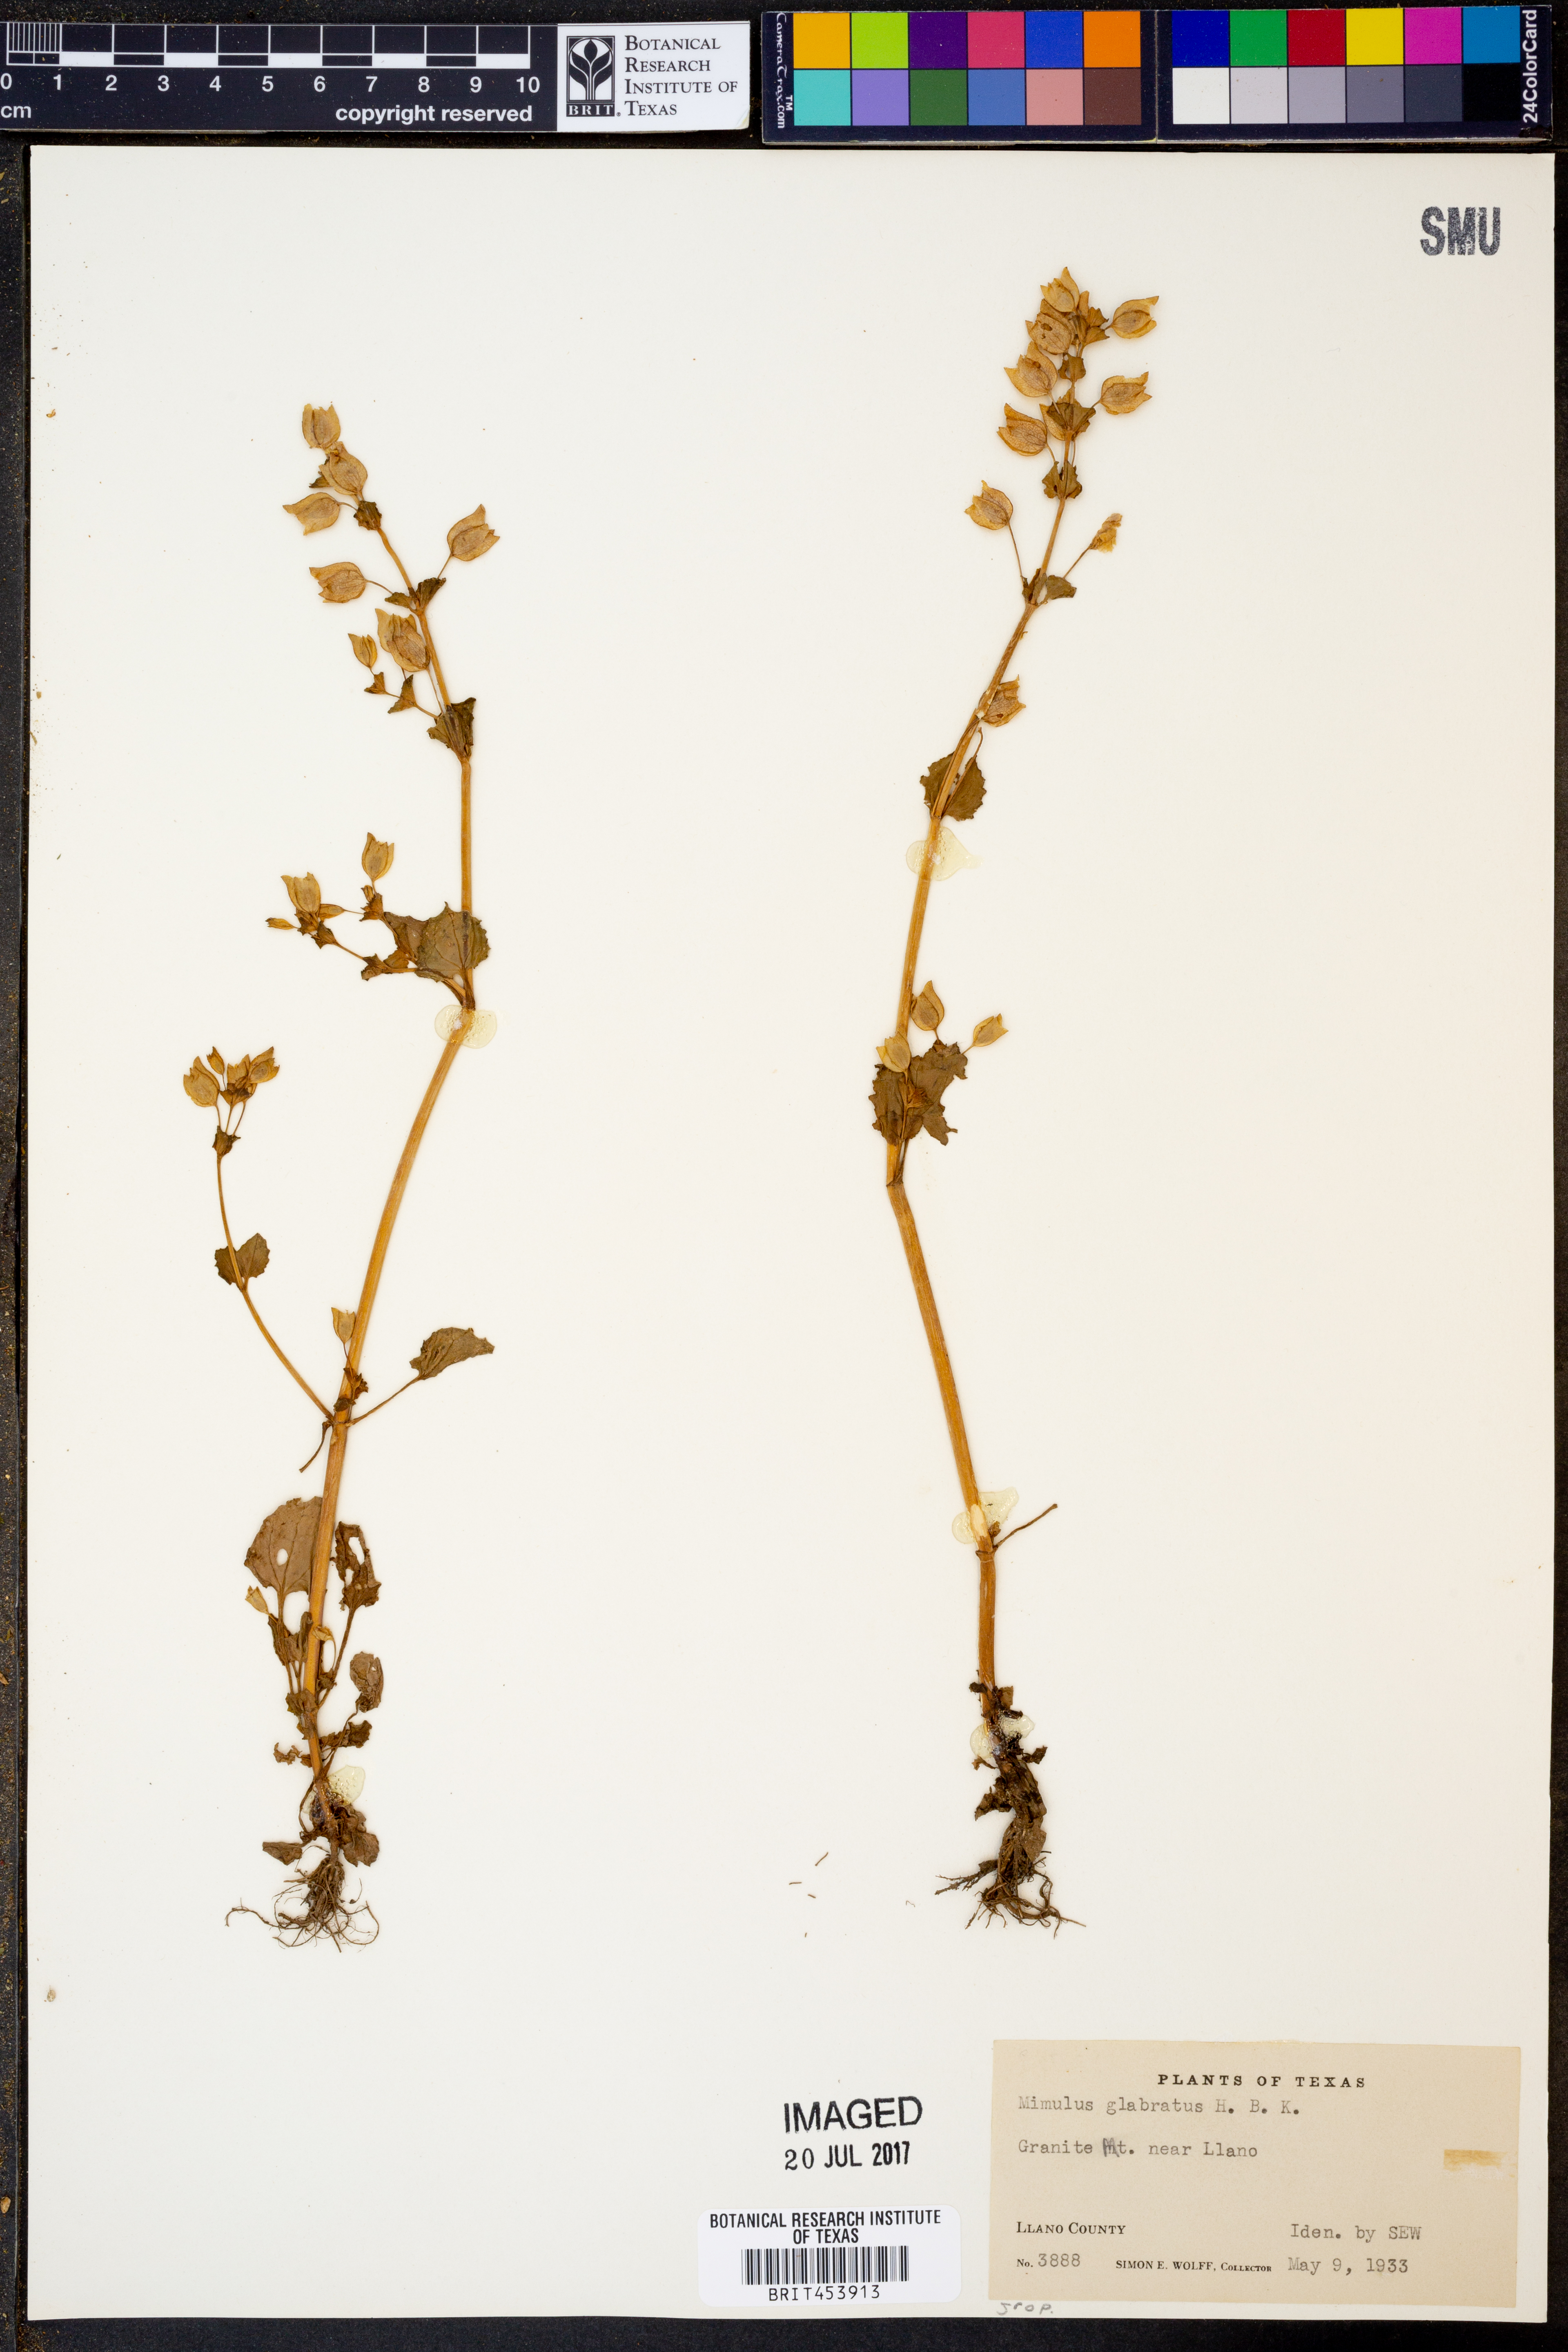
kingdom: Plantae
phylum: Tracheophyta
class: Magnoliopsida
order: Lamiales
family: Phrymaceae
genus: Erythranthe
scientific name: Erythranthe glabrata
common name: Round-leaved monkeyflower
